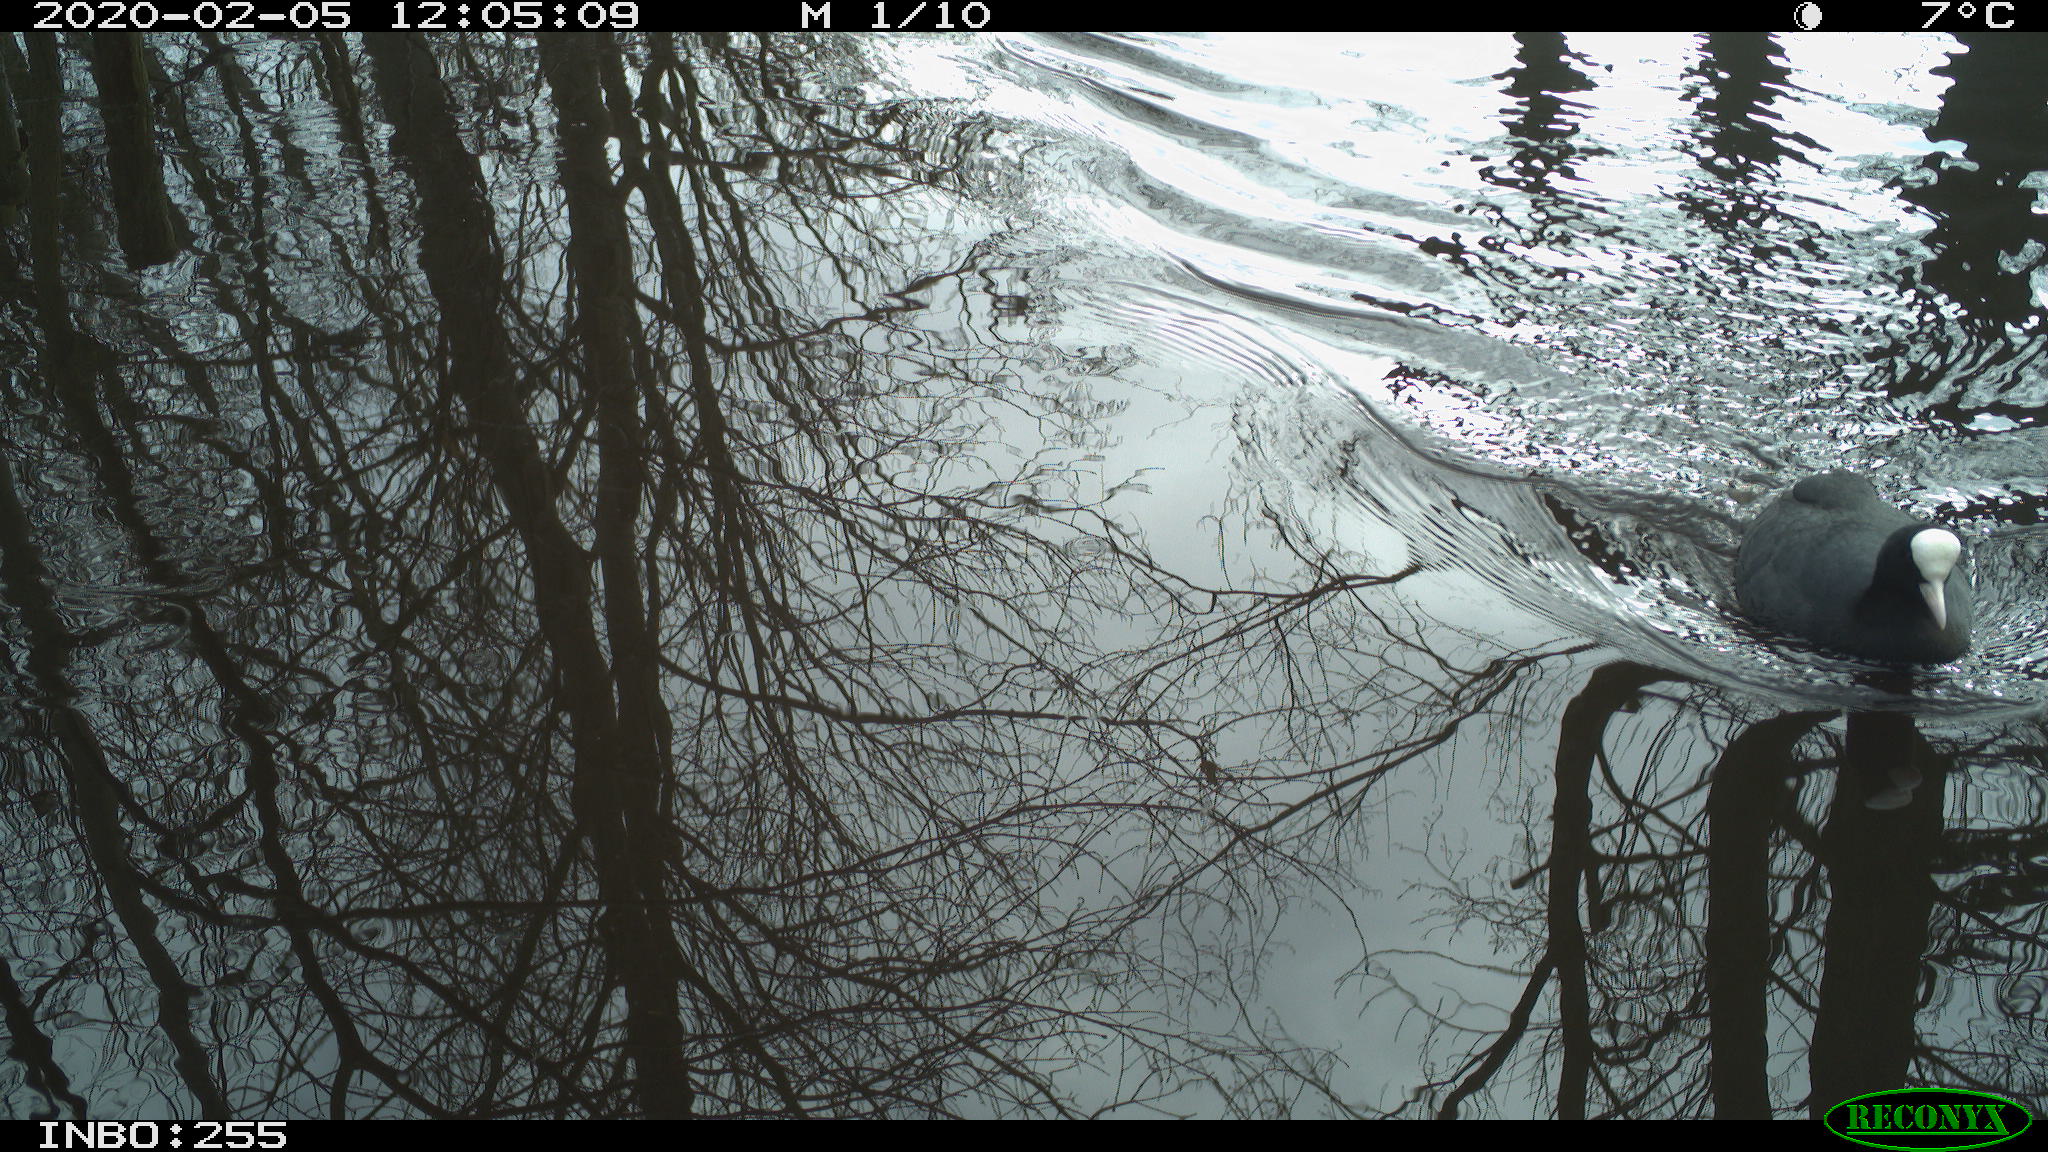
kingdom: Animalia
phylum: Chordata
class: Aves
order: Gruiformes
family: Rallidae
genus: Fulica
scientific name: Fulica atra
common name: Eurasian coot
